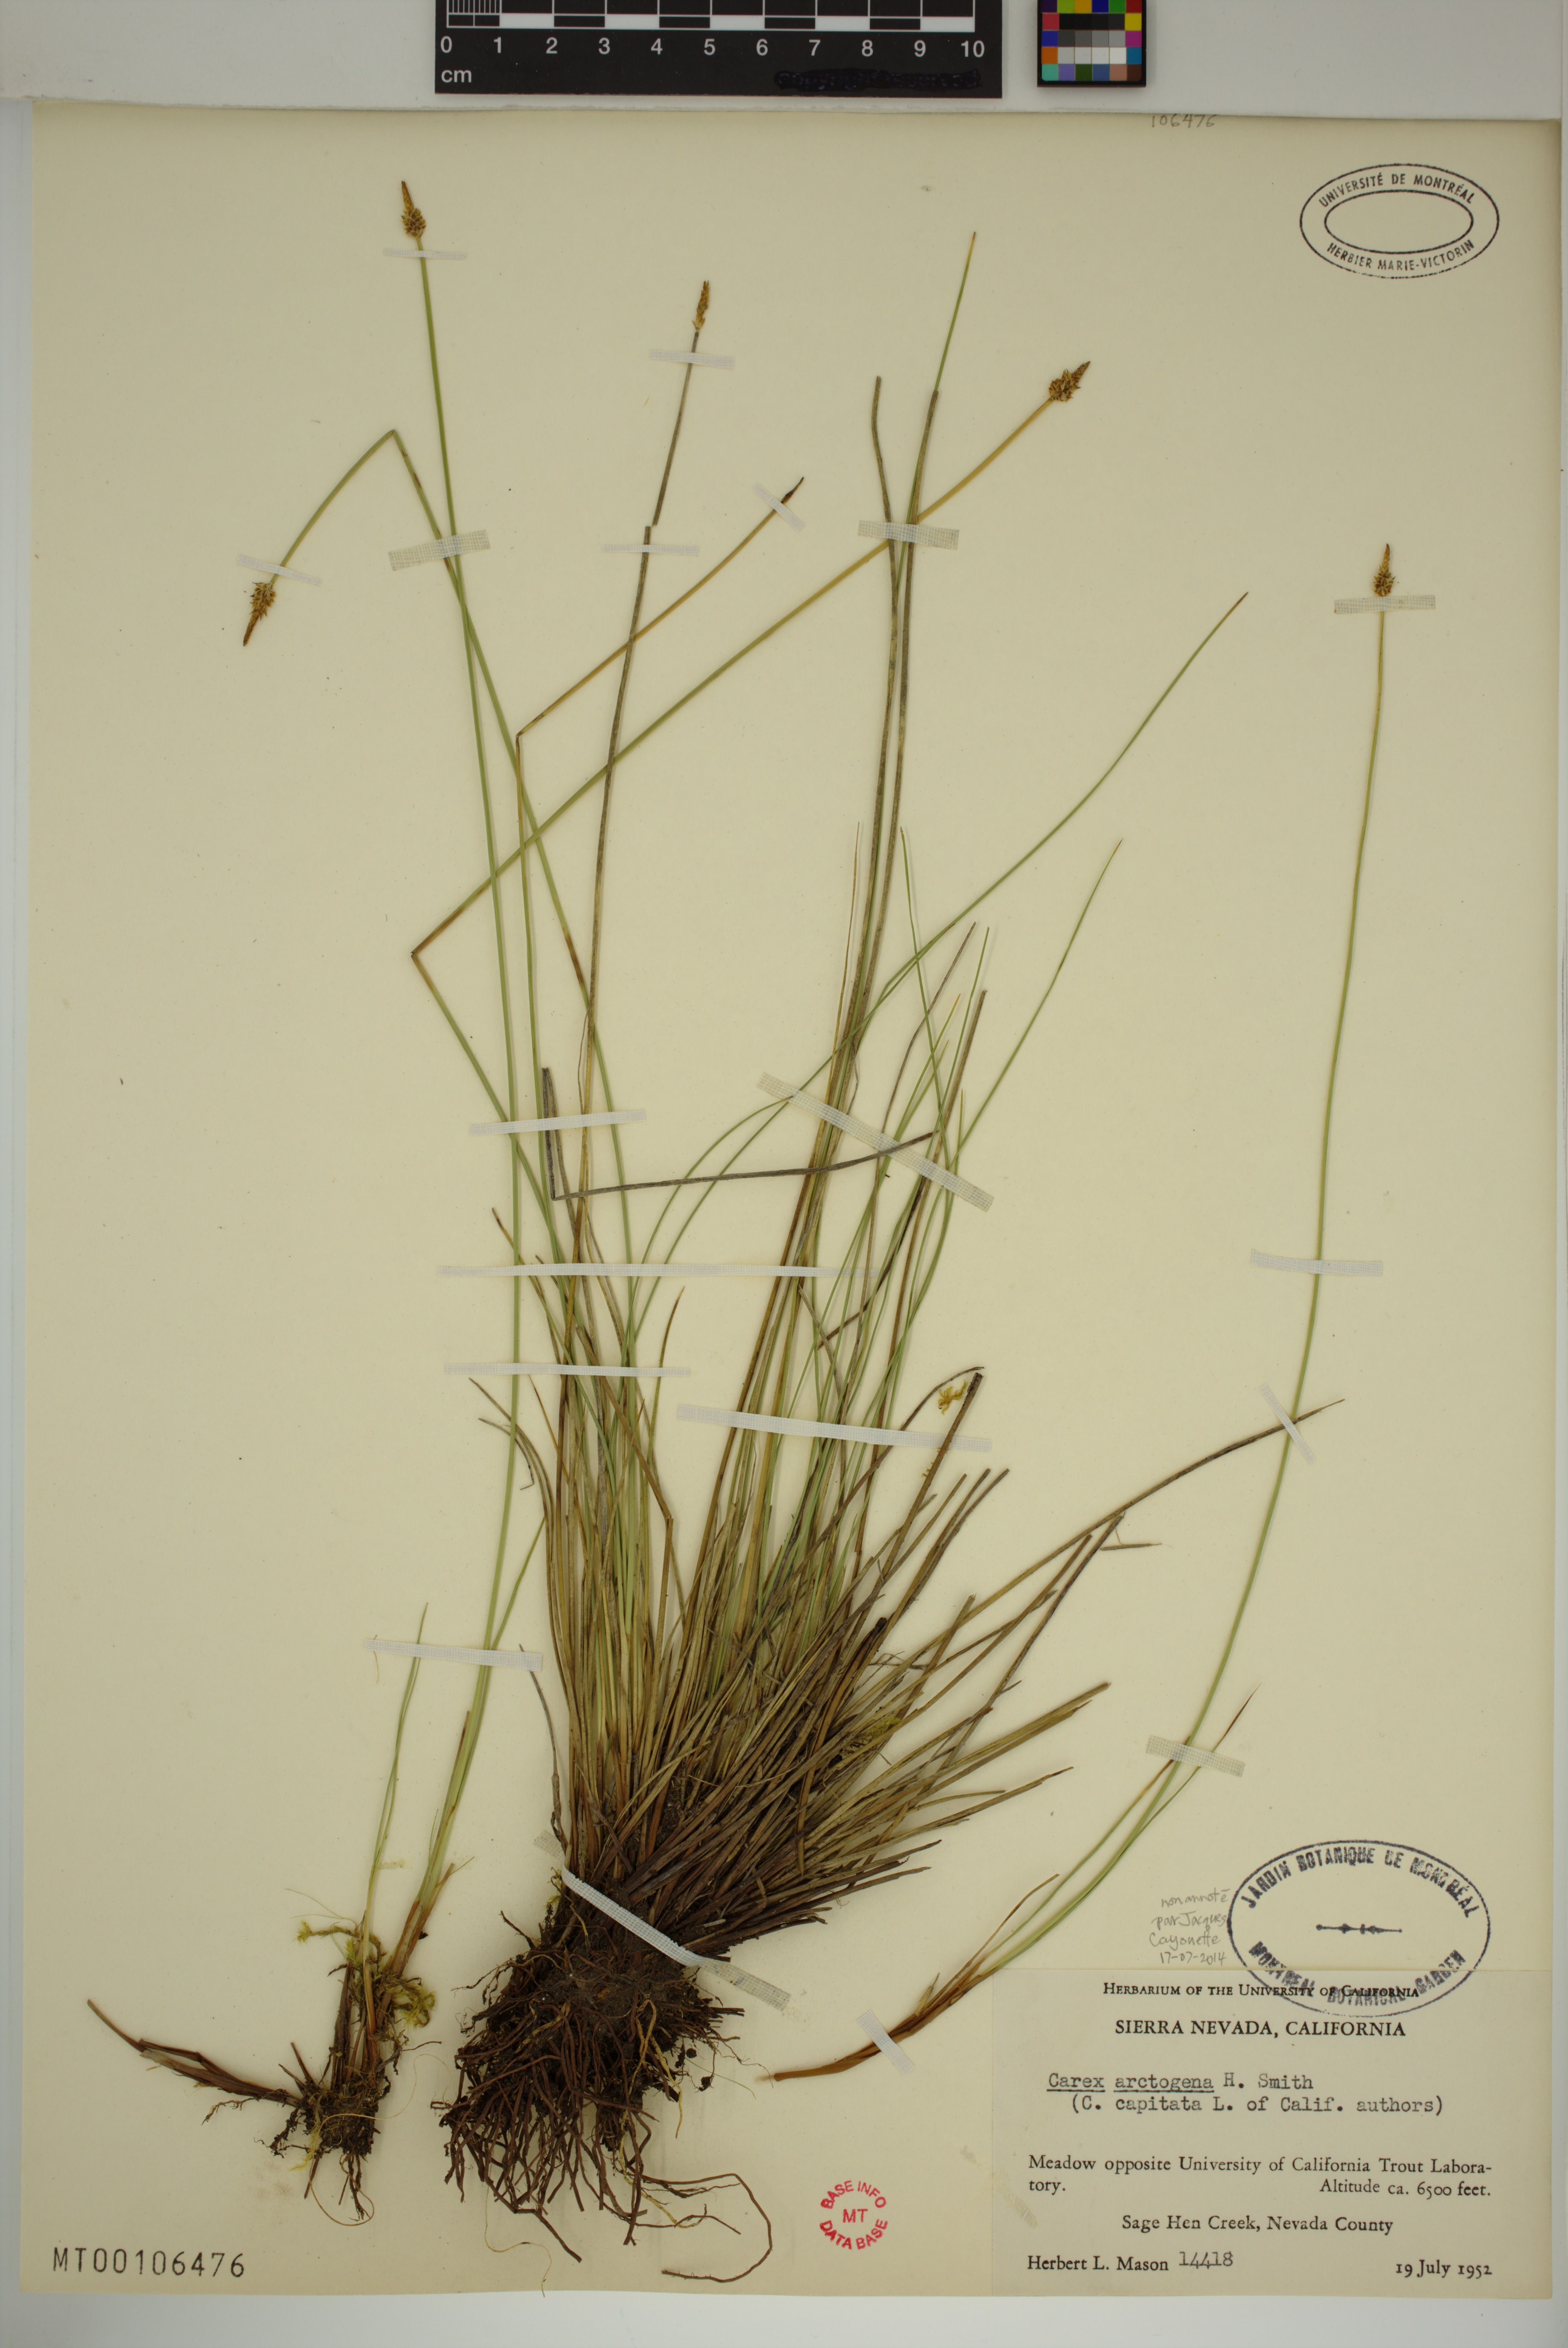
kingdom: Plantae
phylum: Tracheophyta
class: Liliopsida
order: Poales
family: Cyperaceae
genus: Carex
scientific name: Carex arctogena
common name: Black sedge
